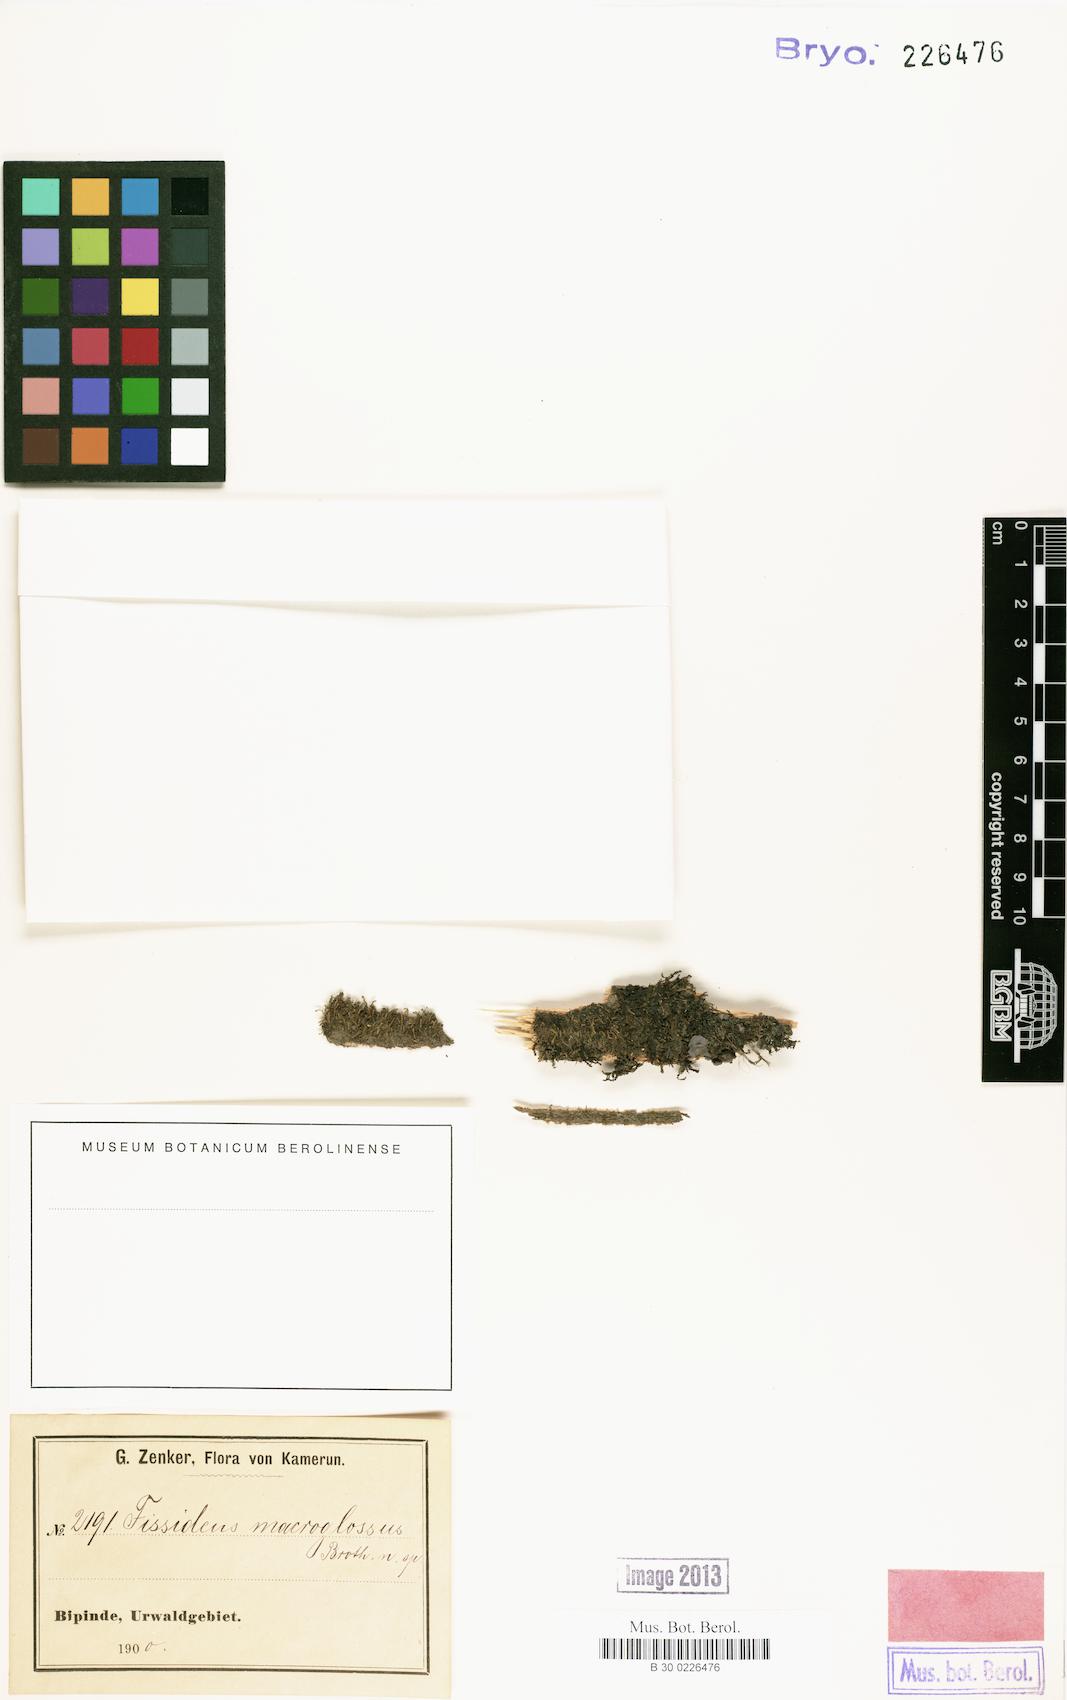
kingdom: Plantae
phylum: Bryophyta
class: Bryopsida
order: Dicranales
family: Fissidentaceae
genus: Fissidens
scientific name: Fissidens macroglossus
